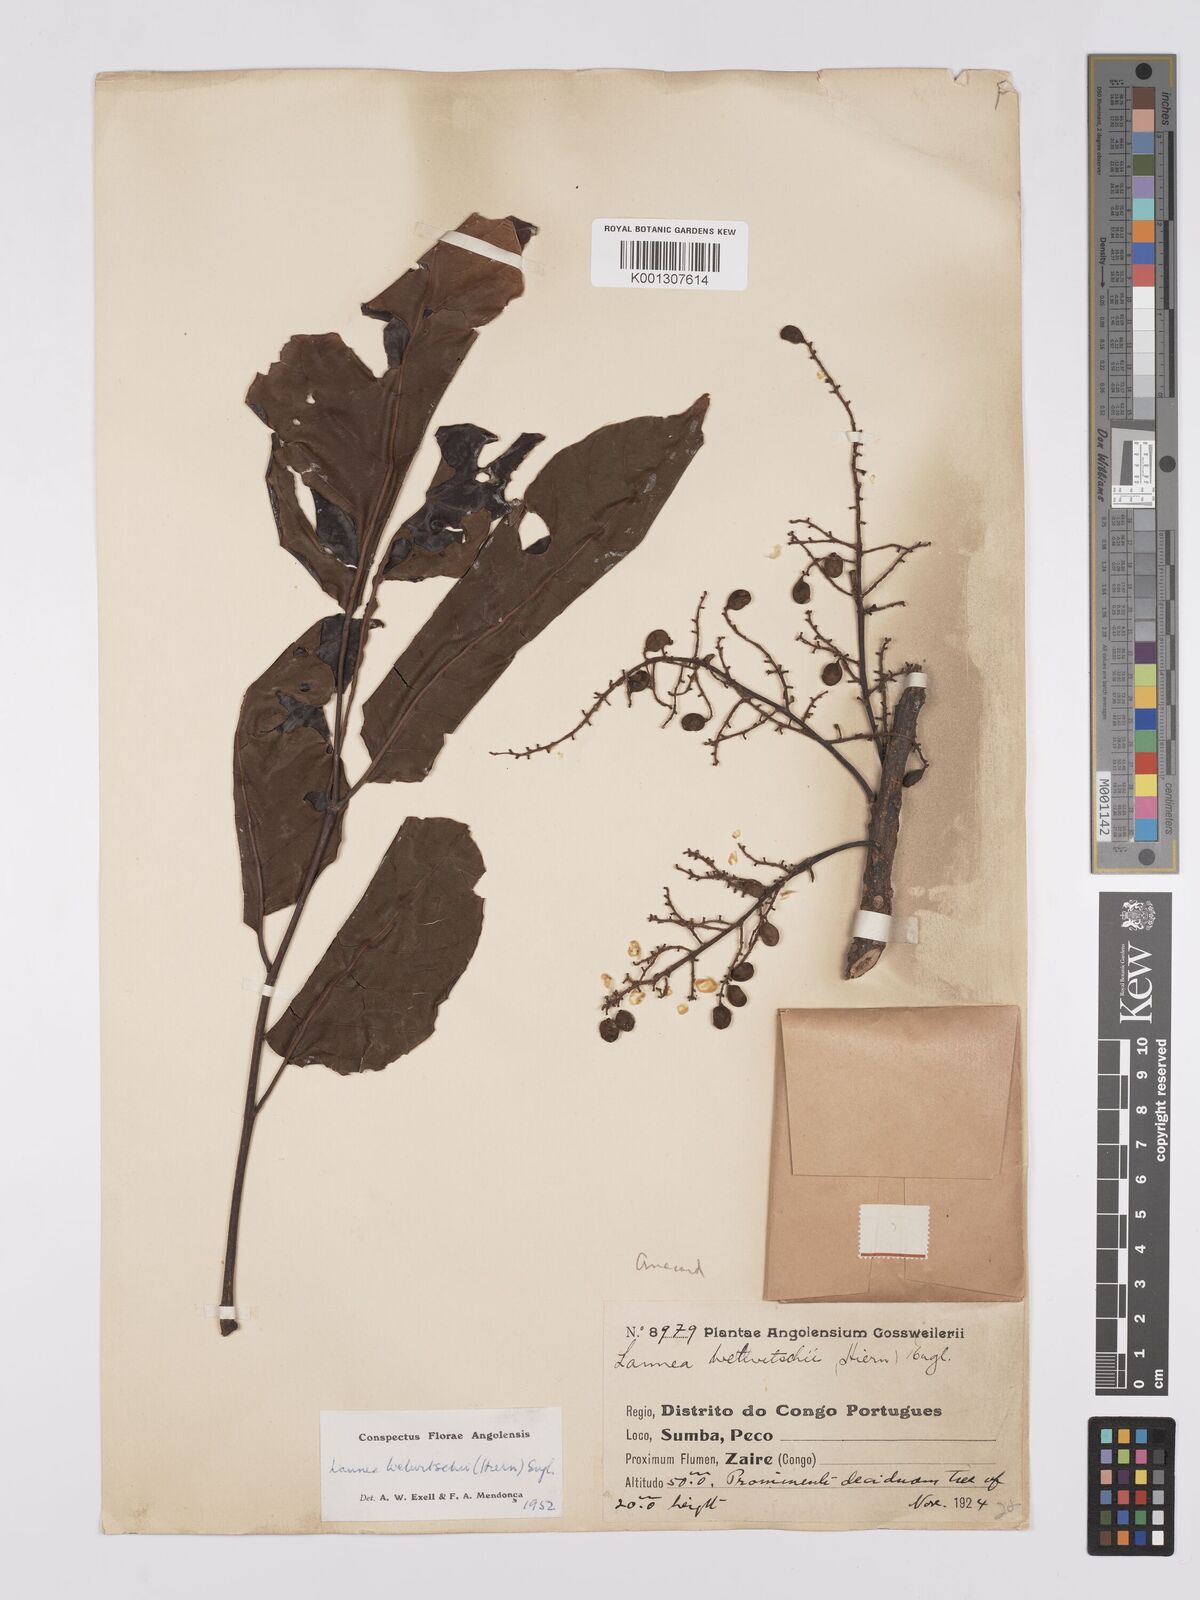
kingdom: Plantae
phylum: Tracheophyta
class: Magnoliopsida
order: Sapindales
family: Anacardiaceae
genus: Lannea
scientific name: Lannea welwitschii
